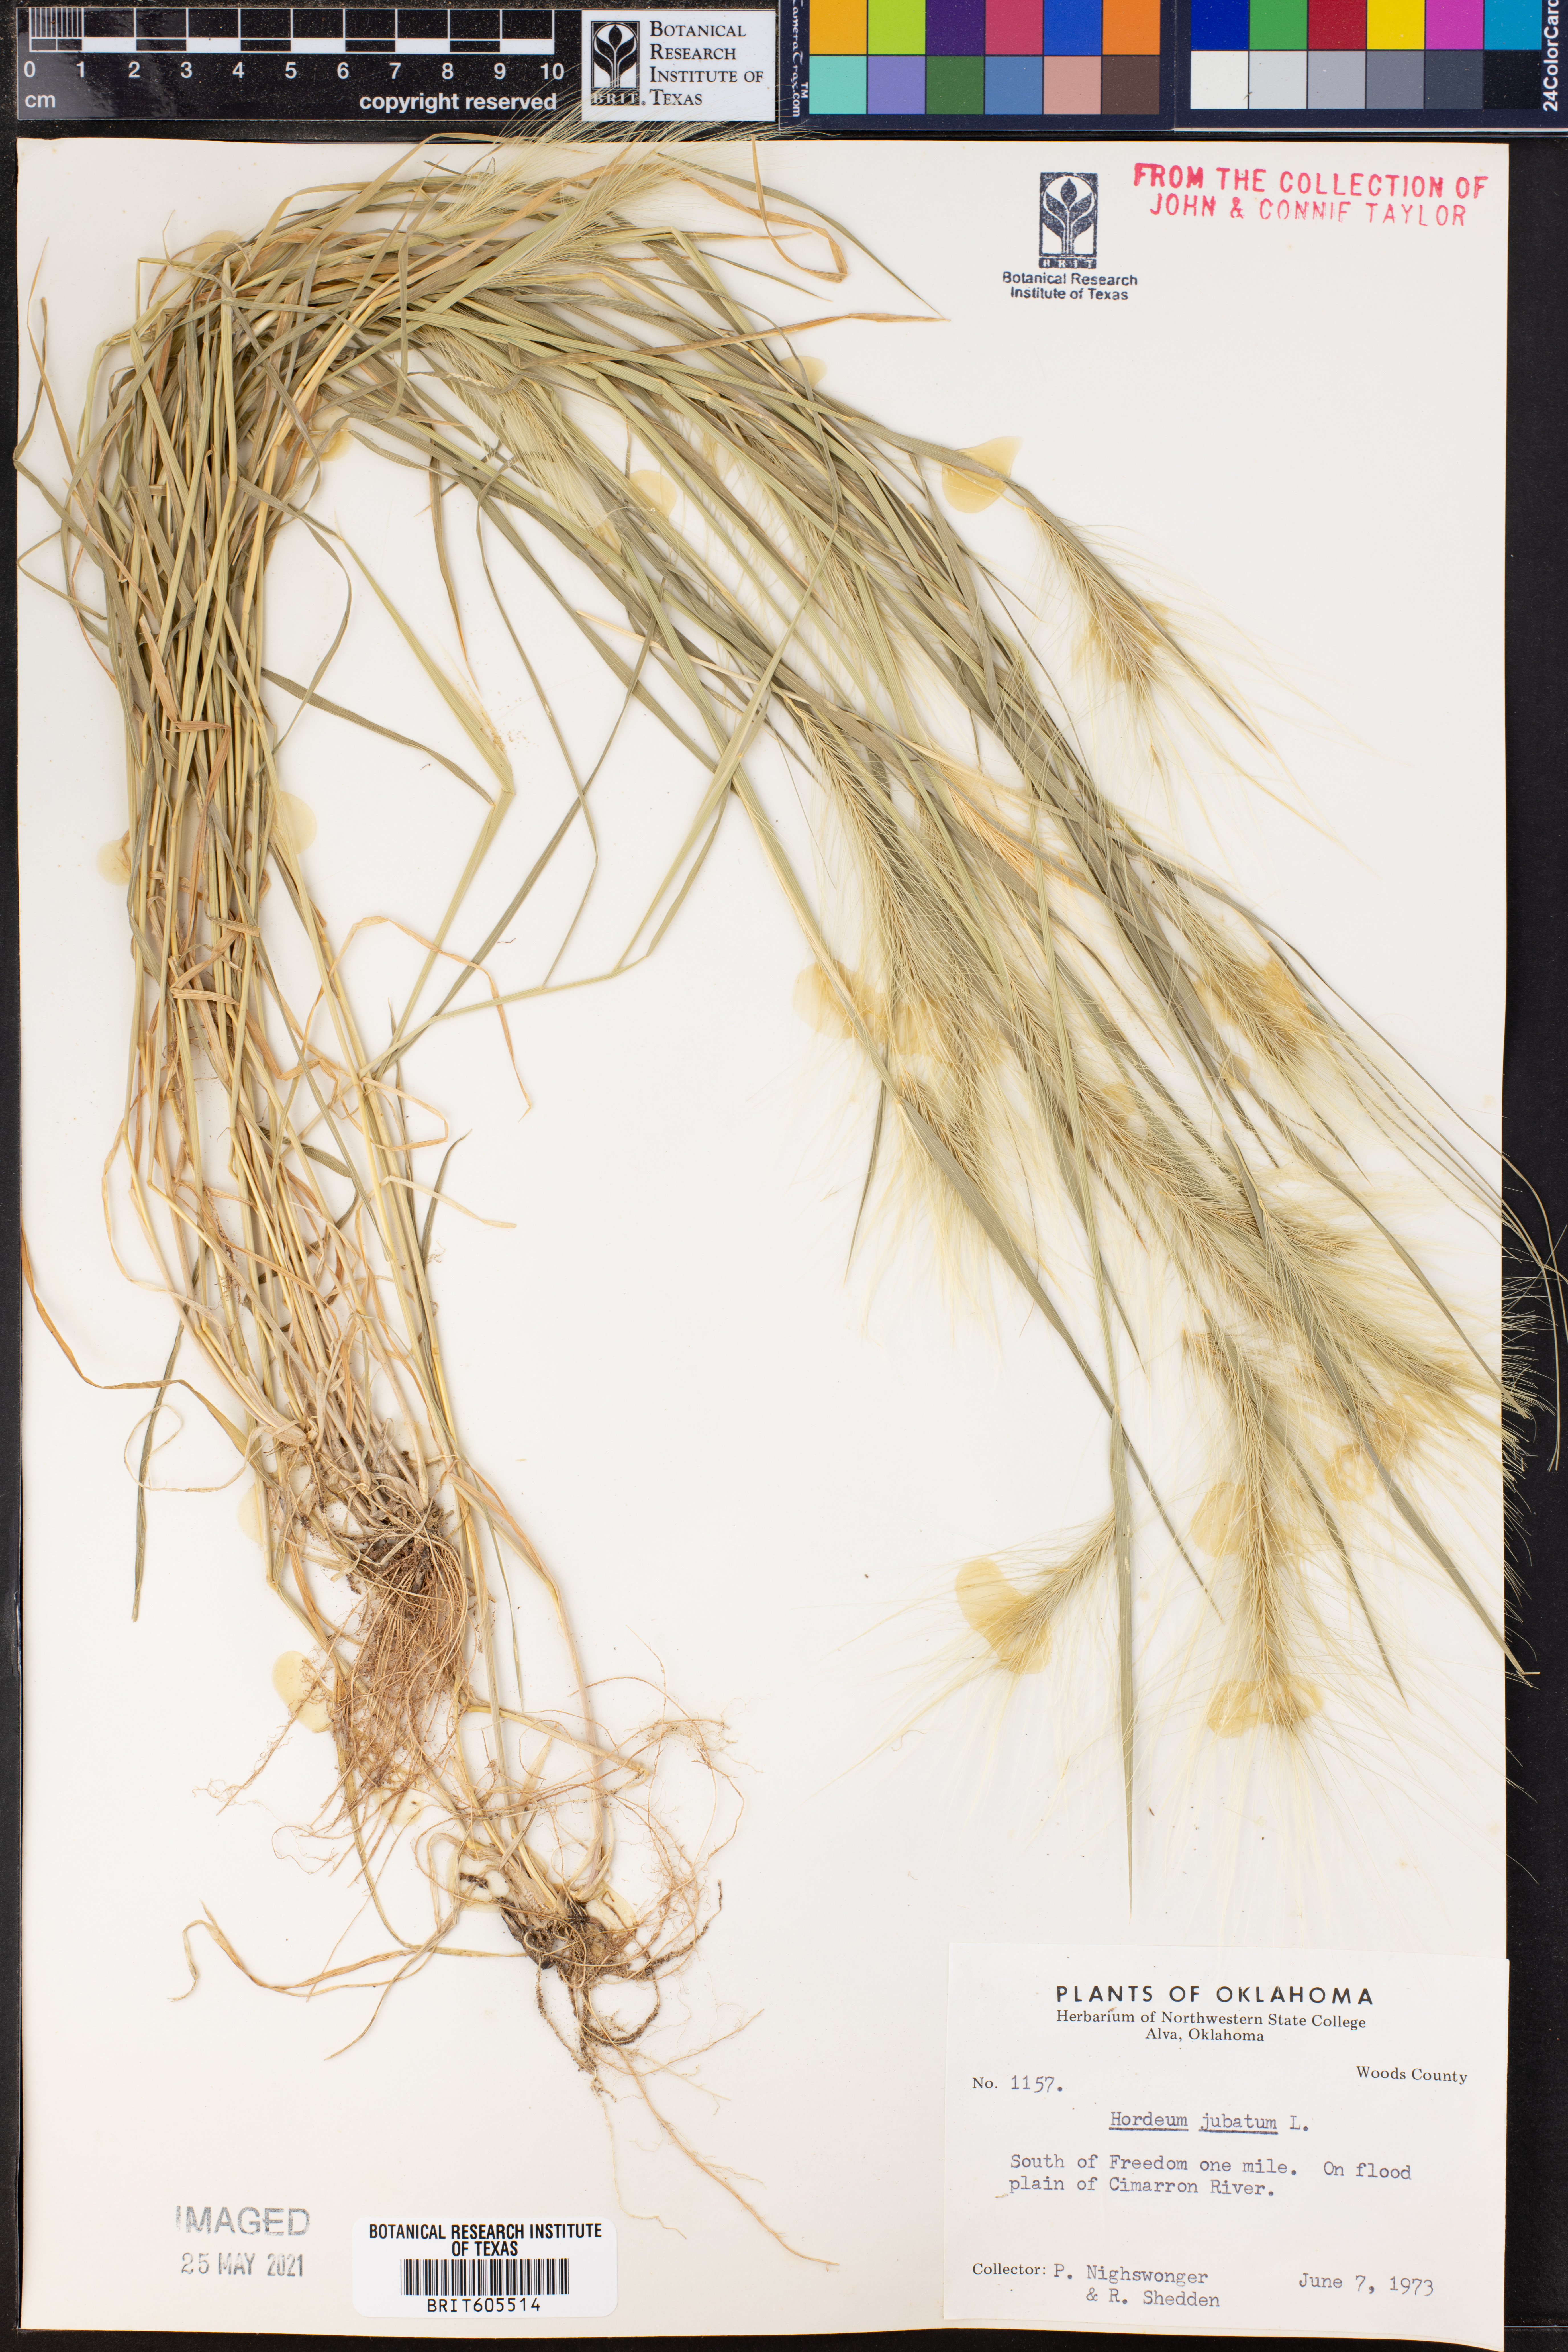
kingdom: Plantae
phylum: Tracheophyta
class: Liliopsida
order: Poales
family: Poaceae
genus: Hordeum
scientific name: Hordeum jubatum
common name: Foxtail barley
